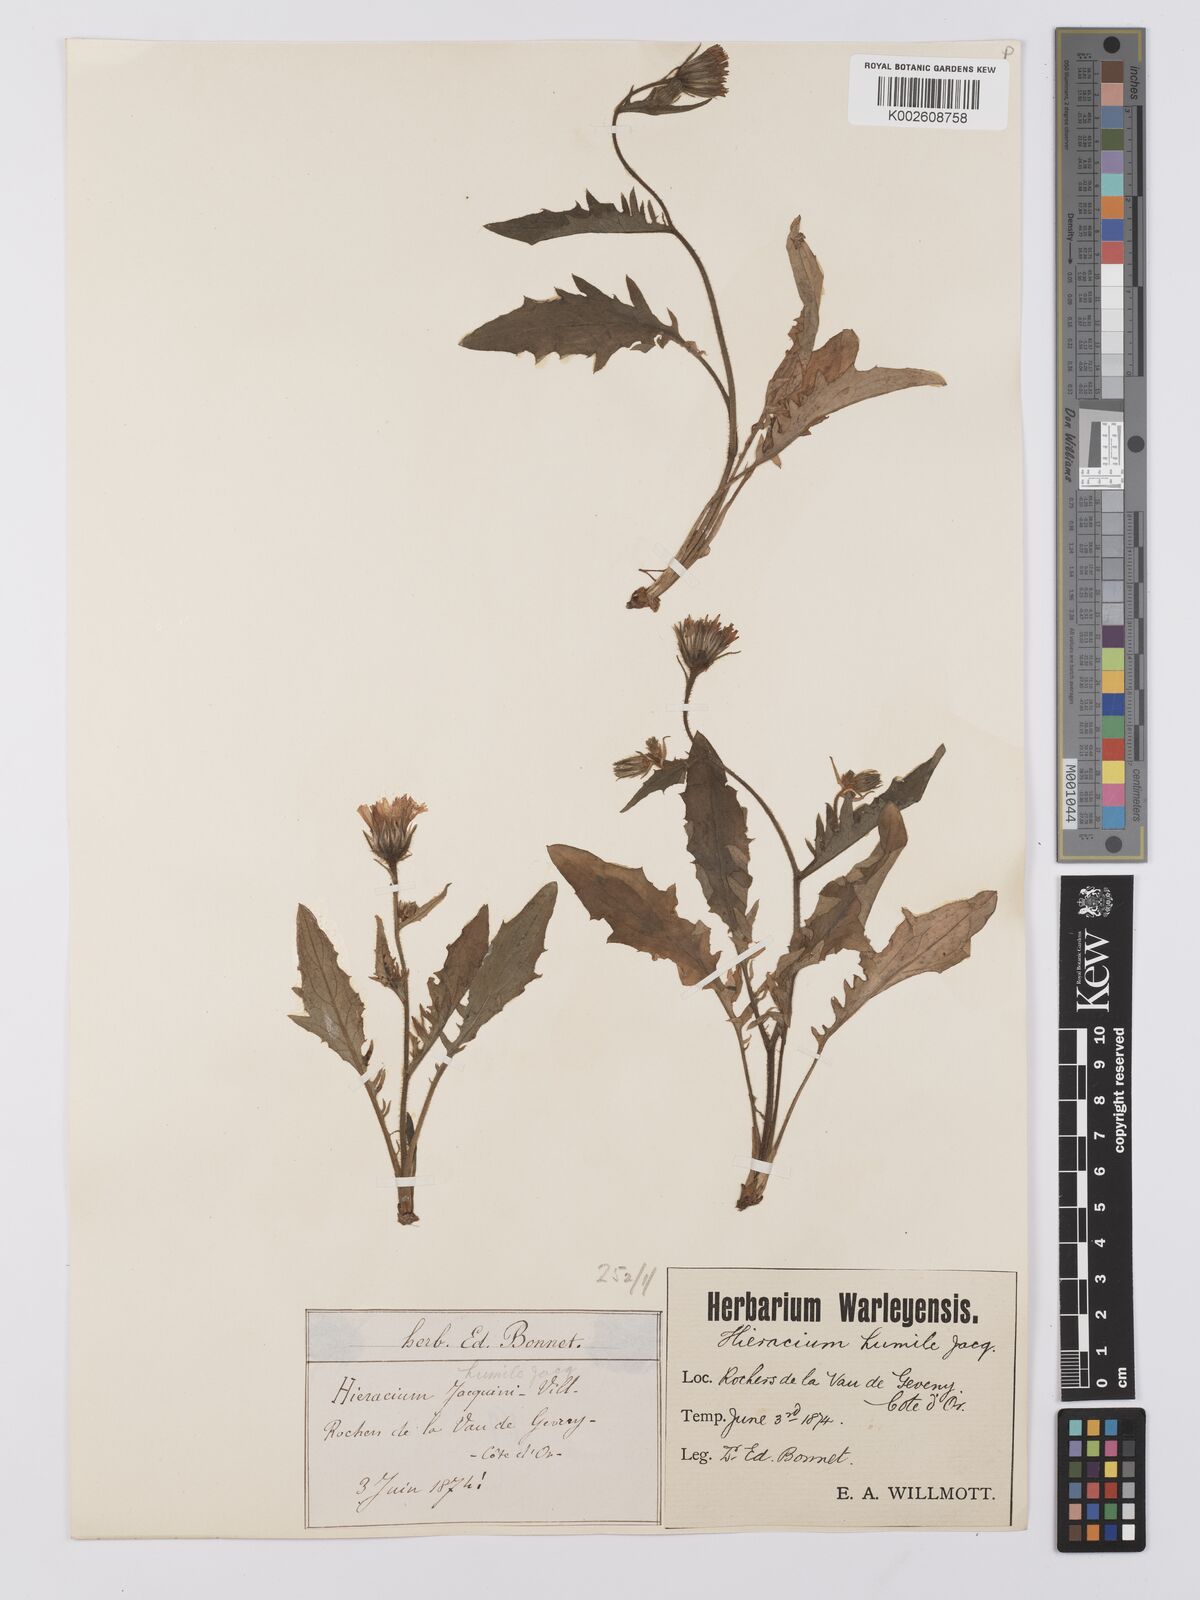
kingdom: Plantae
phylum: Tracheophyta
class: Magnoliopsida
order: Asterales
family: Asteraceae
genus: Hieracium
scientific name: Hieracium humile
